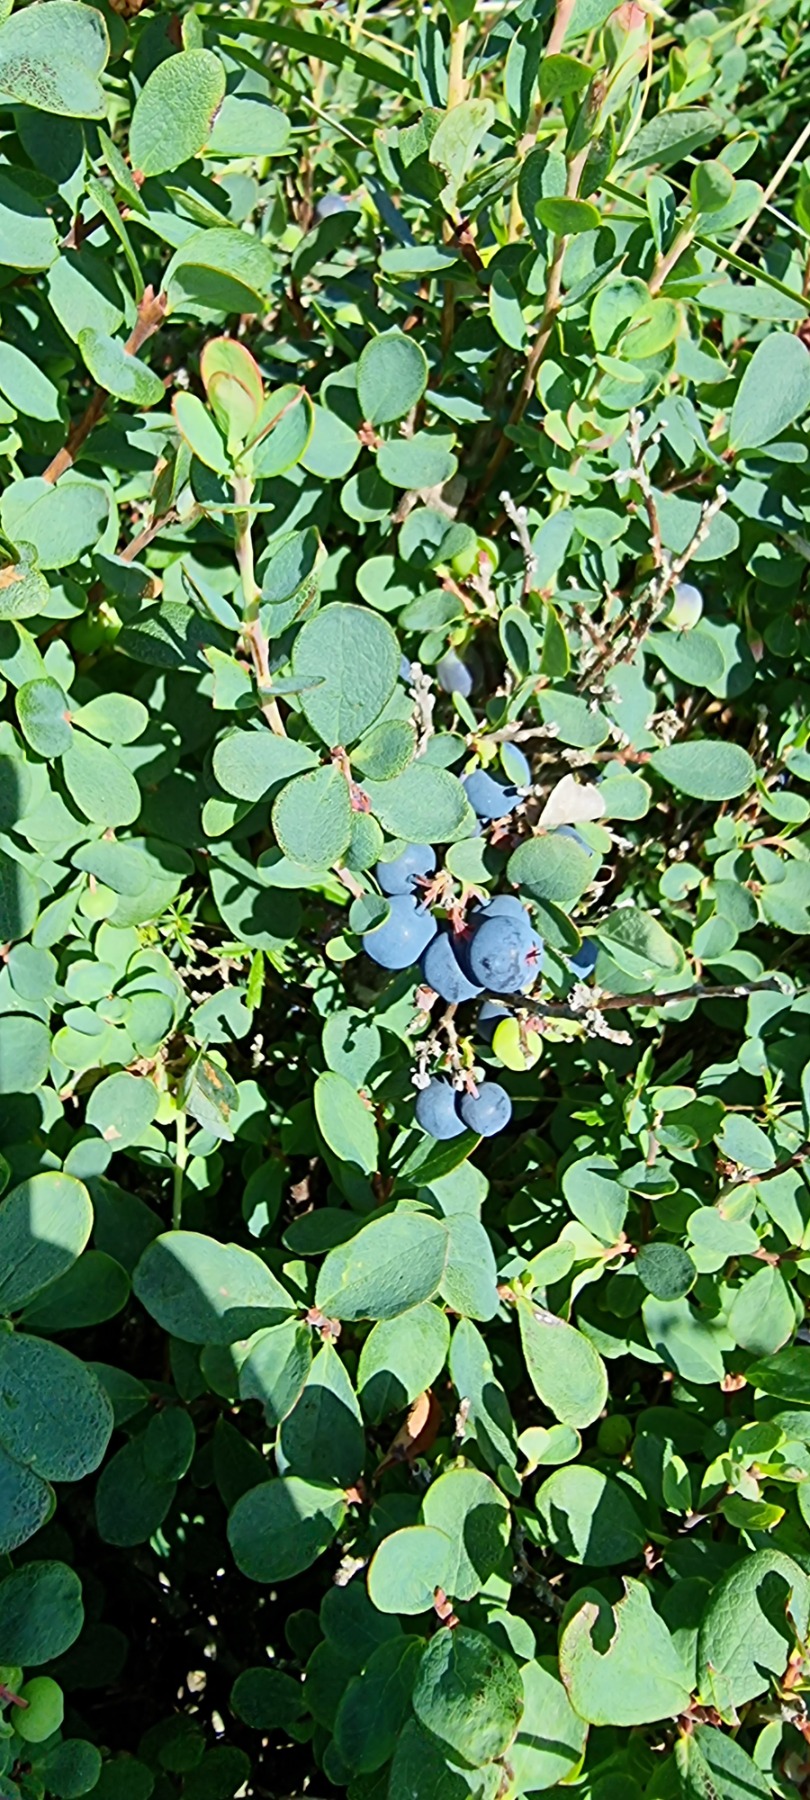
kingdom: Plantae
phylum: Tracheophyta
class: Magnoliopsida
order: Ericales
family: Ericaceae
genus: Vaccinium
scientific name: Vaccinium uliginosum
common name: Mose-bølle
